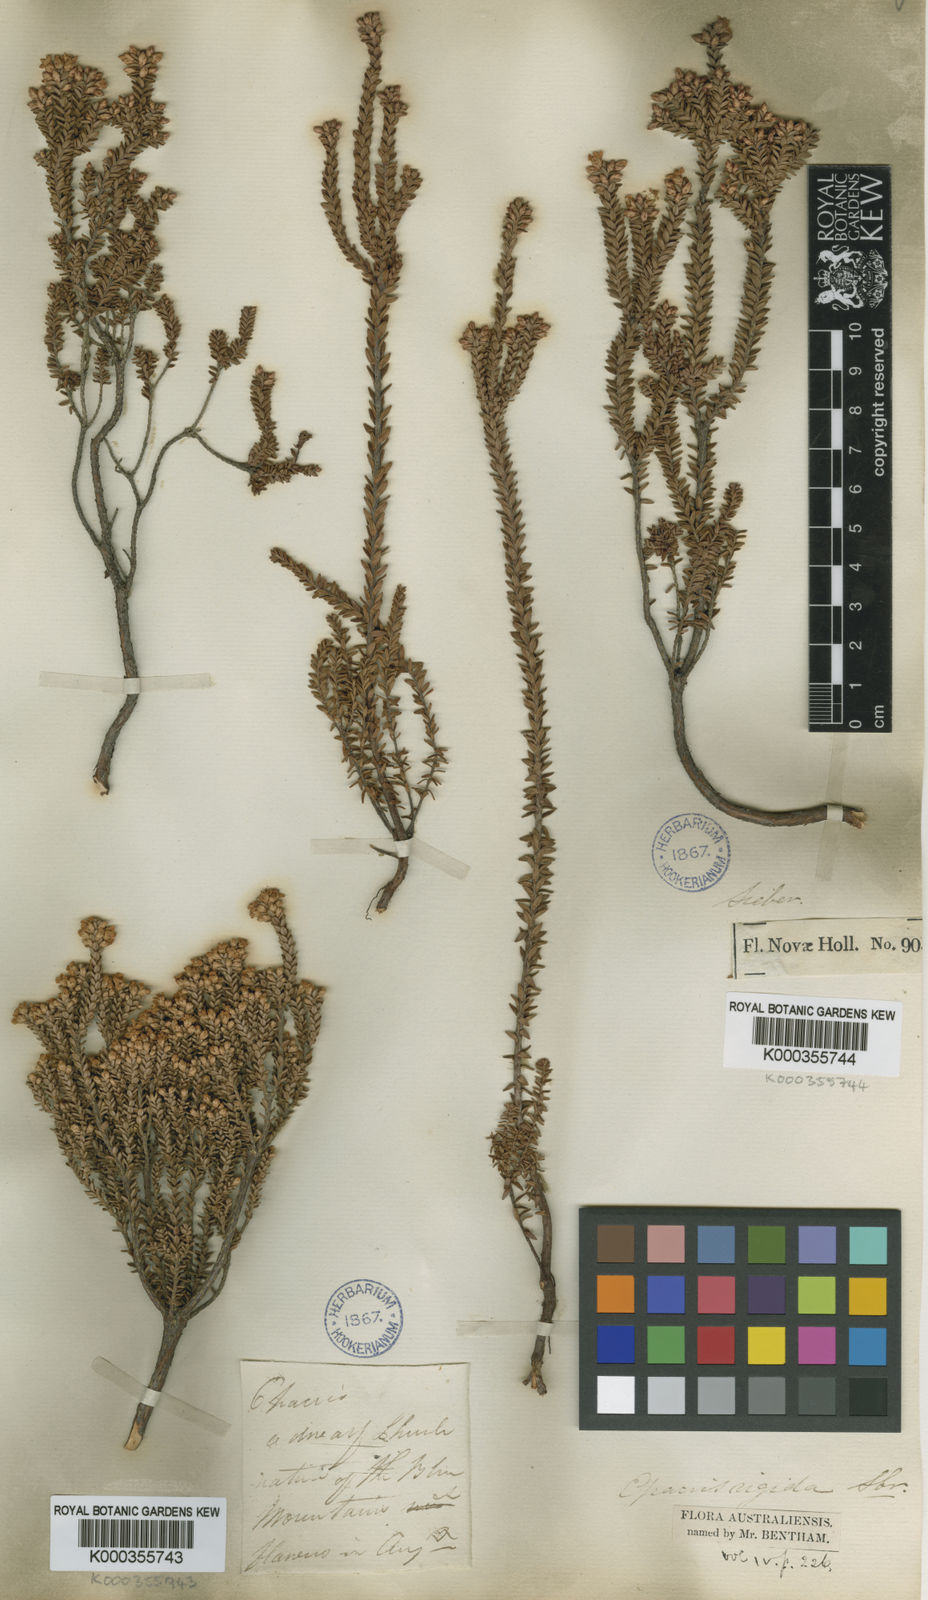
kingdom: Plantae
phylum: Tracheophyta
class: Magnoliopsida
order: Ericales
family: Ericaceae
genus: Epacris
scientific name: Epacris rigida
